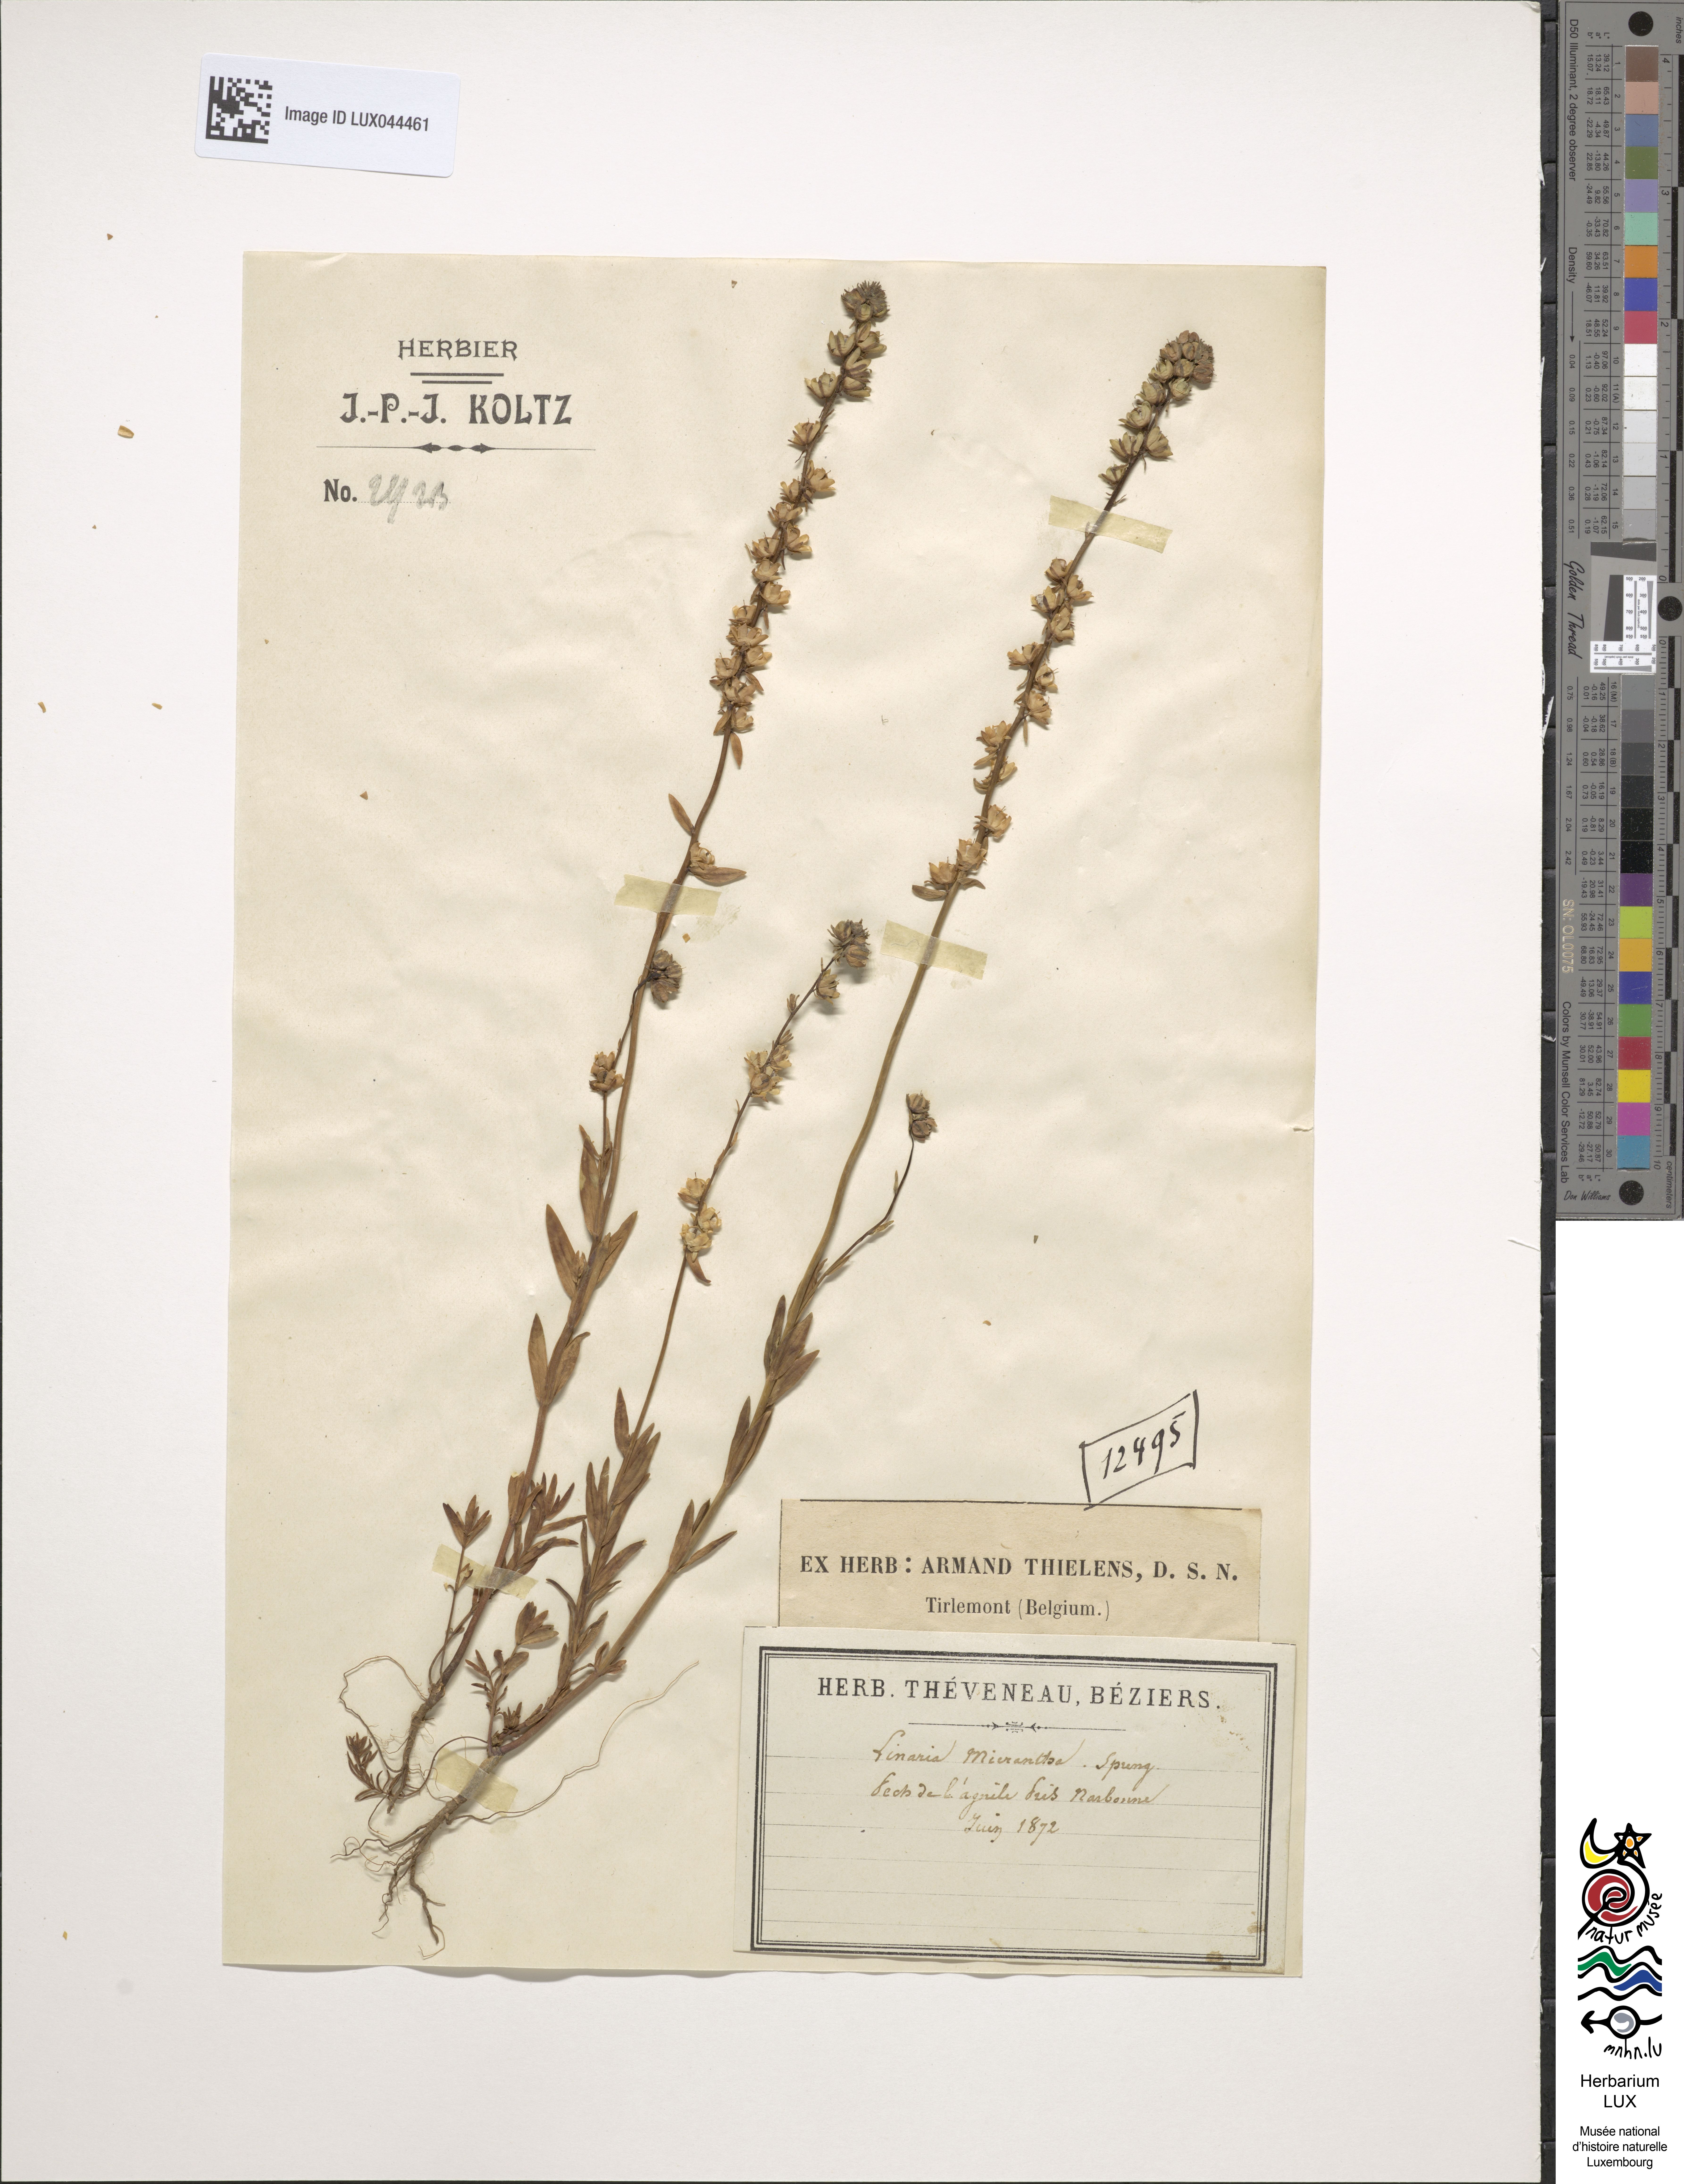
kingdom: Plantae
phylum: Tracheophyta
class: Magnoliopsida
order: Lamiales
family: Plantaginaceae
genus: Linaria
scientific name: Linaria micrantha
